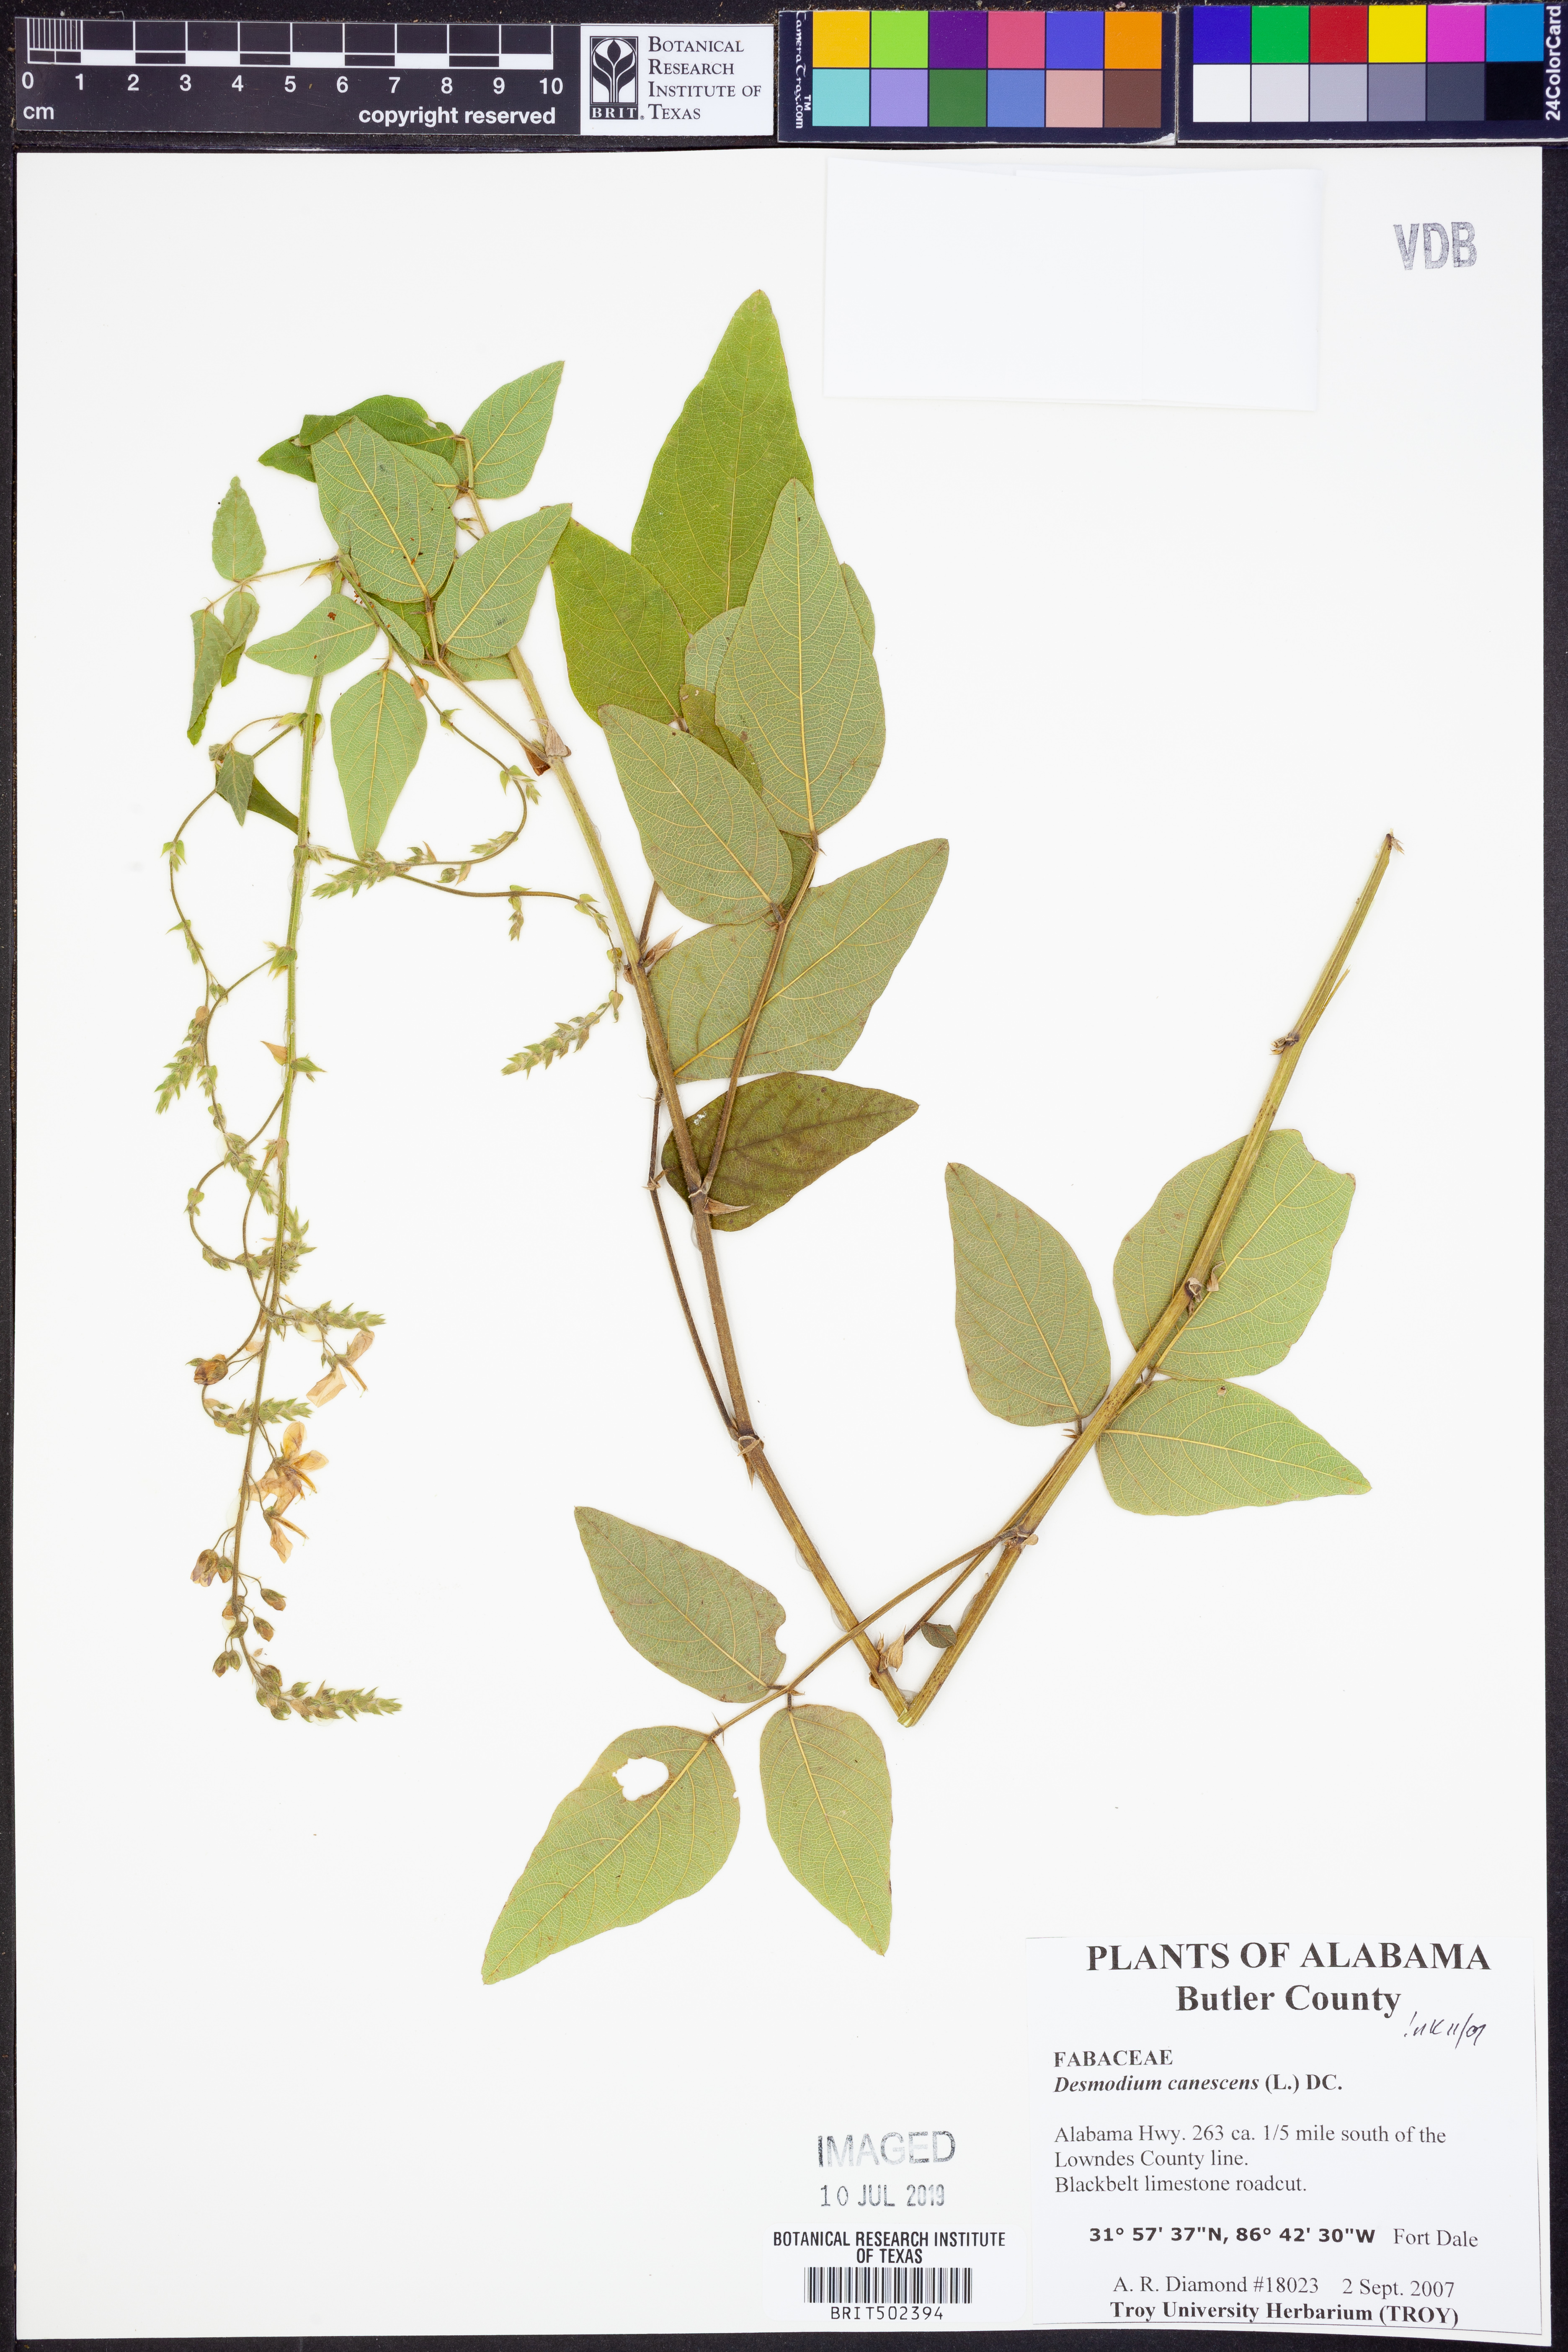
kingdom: Plantae
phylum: Tracheophyta
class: Magnoliopsida
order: Fabales
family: Fabaceae
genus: Desmodium
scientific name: Desmodium canescens
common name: Hoary tick-clover
